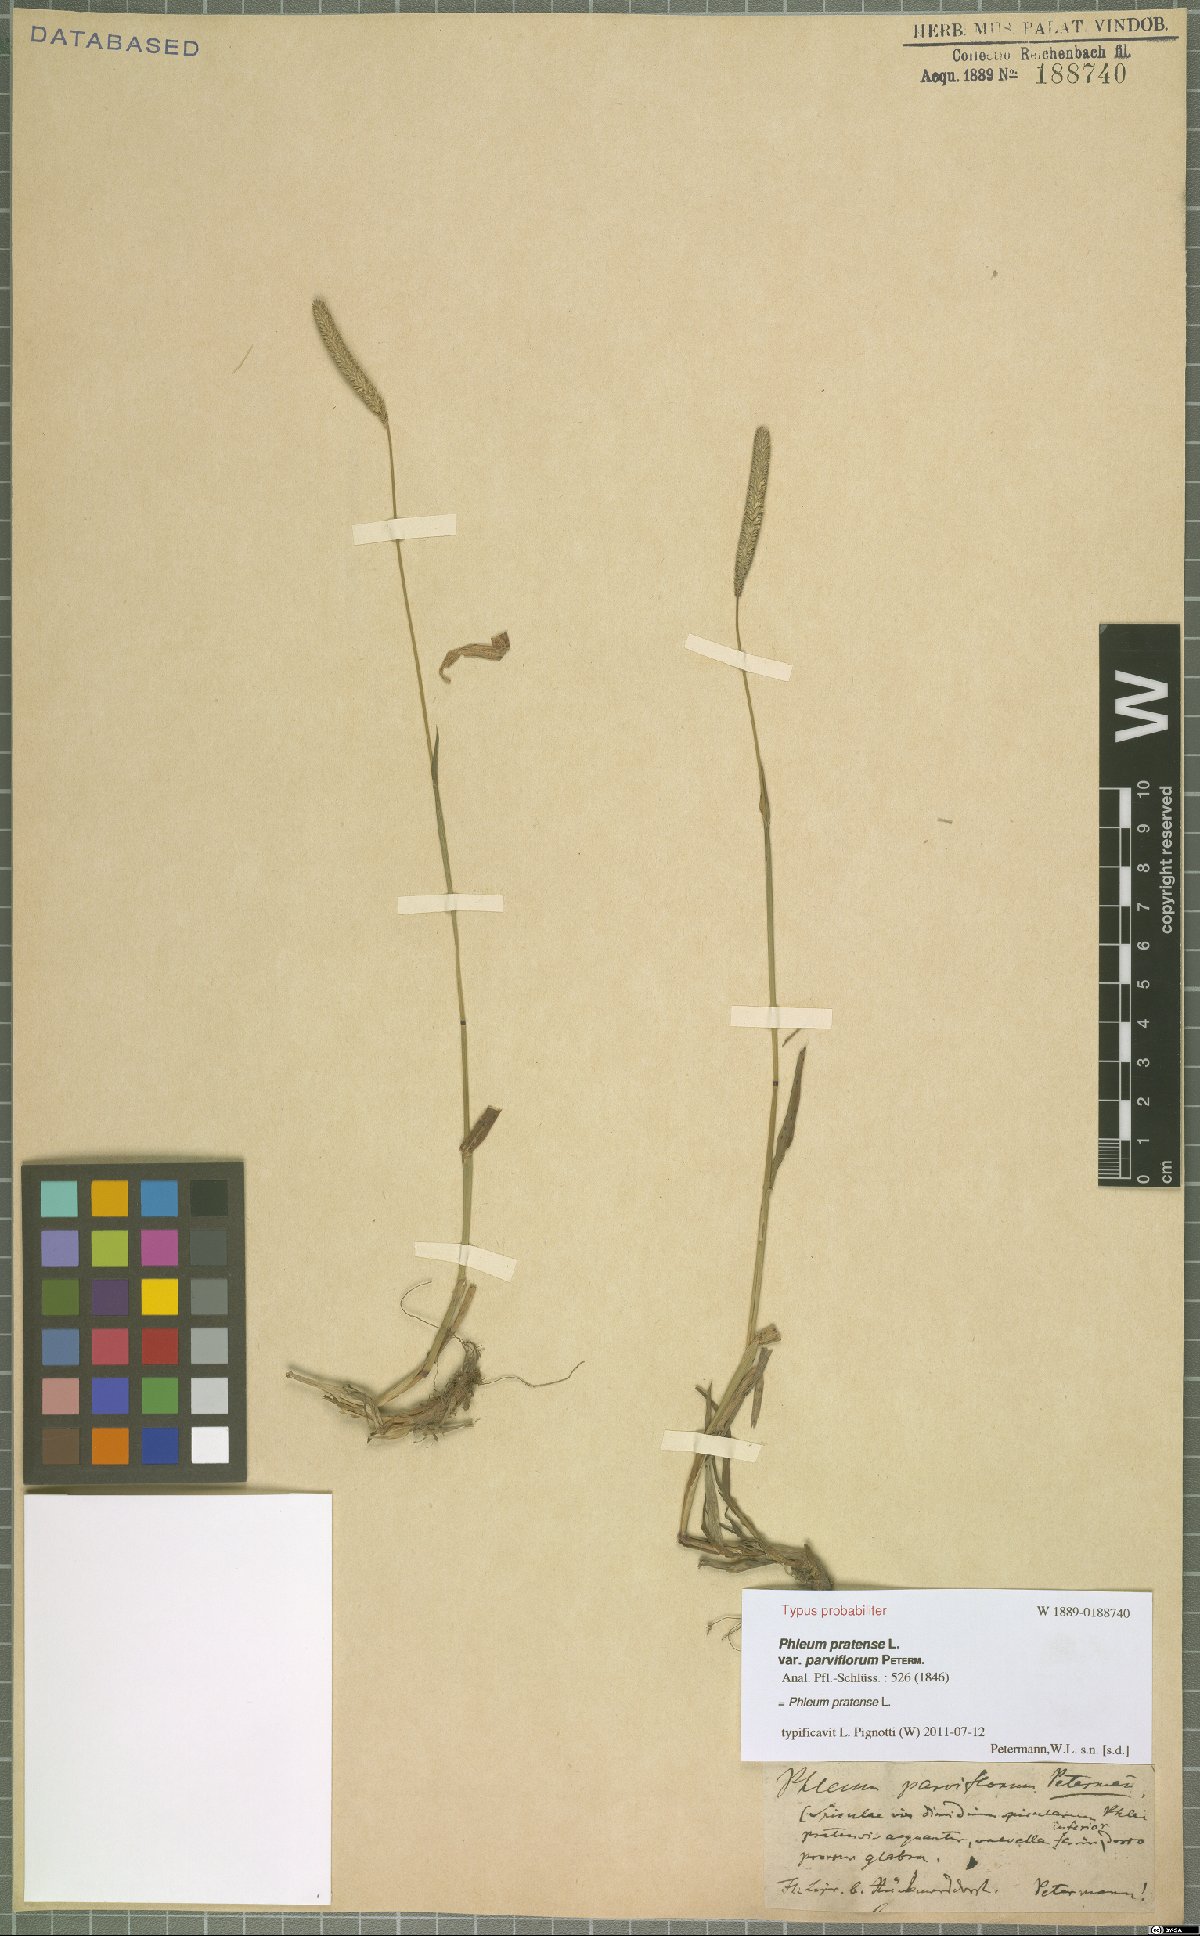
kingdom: Plantae
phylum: Tracheophyta
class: Liliopsida
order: Poales
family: Poaceae
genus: Phleum
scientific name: Phleum pratense
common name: Timothy grass
